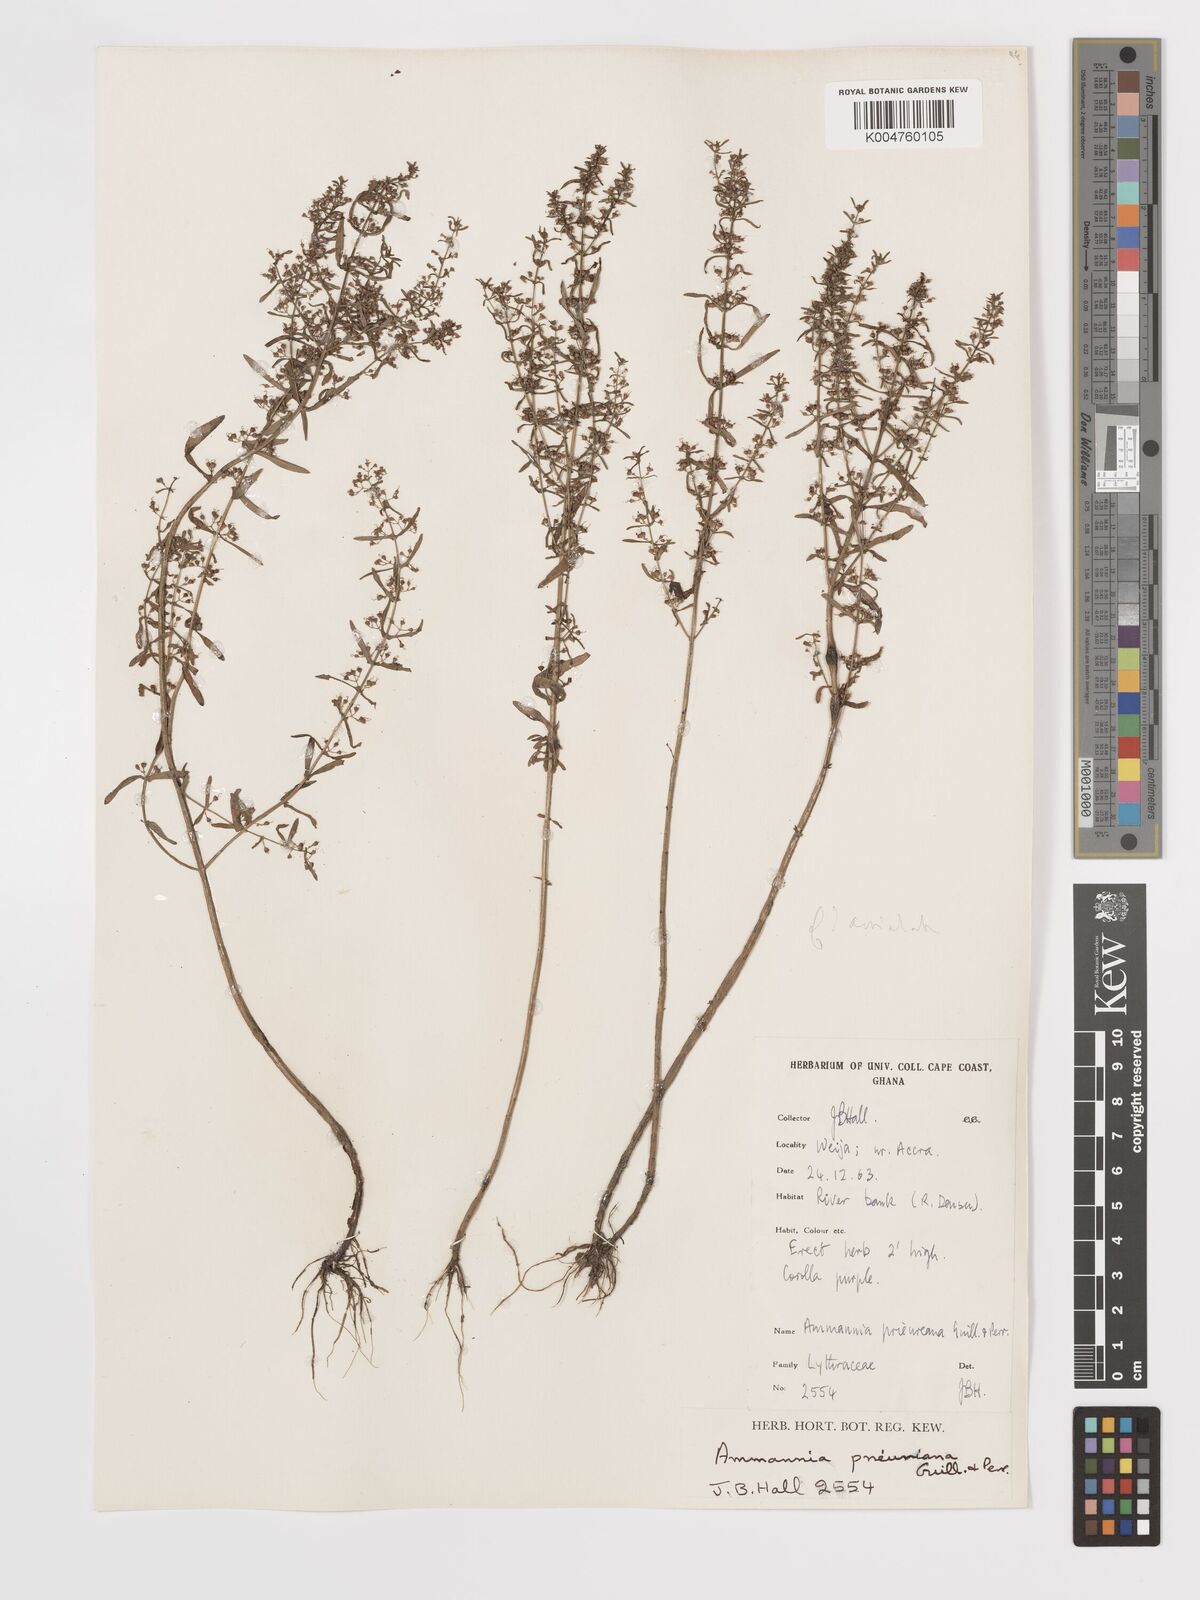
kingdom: Plantae
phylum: Tracheophyta
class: Magnoliopsida
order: Myrtales
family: Lythraceae
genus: Ammannia
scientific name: Ammannia prieuriana
